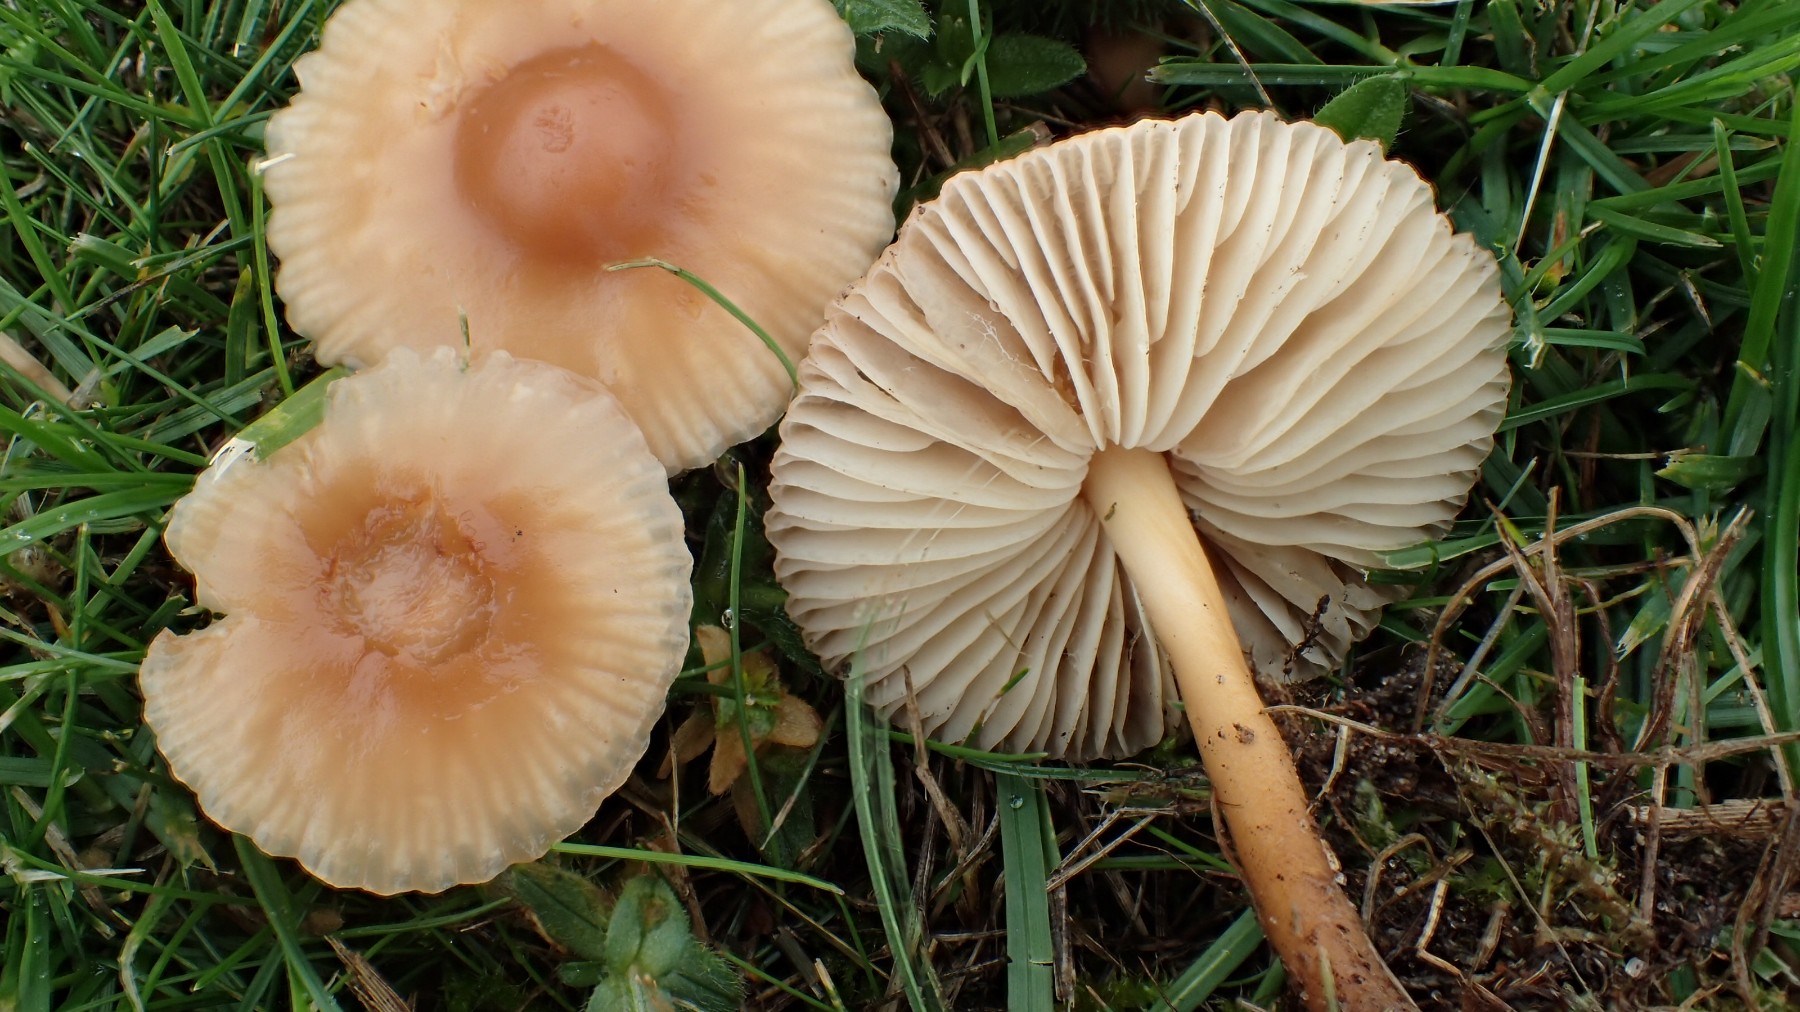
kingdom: Fungi
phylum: Basidiomycota
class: Agaricomycetes
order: Agaricales
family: Marasmiaceae
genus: Marasmius
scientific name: Marasmius oreades
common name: elledans-bruskhat
